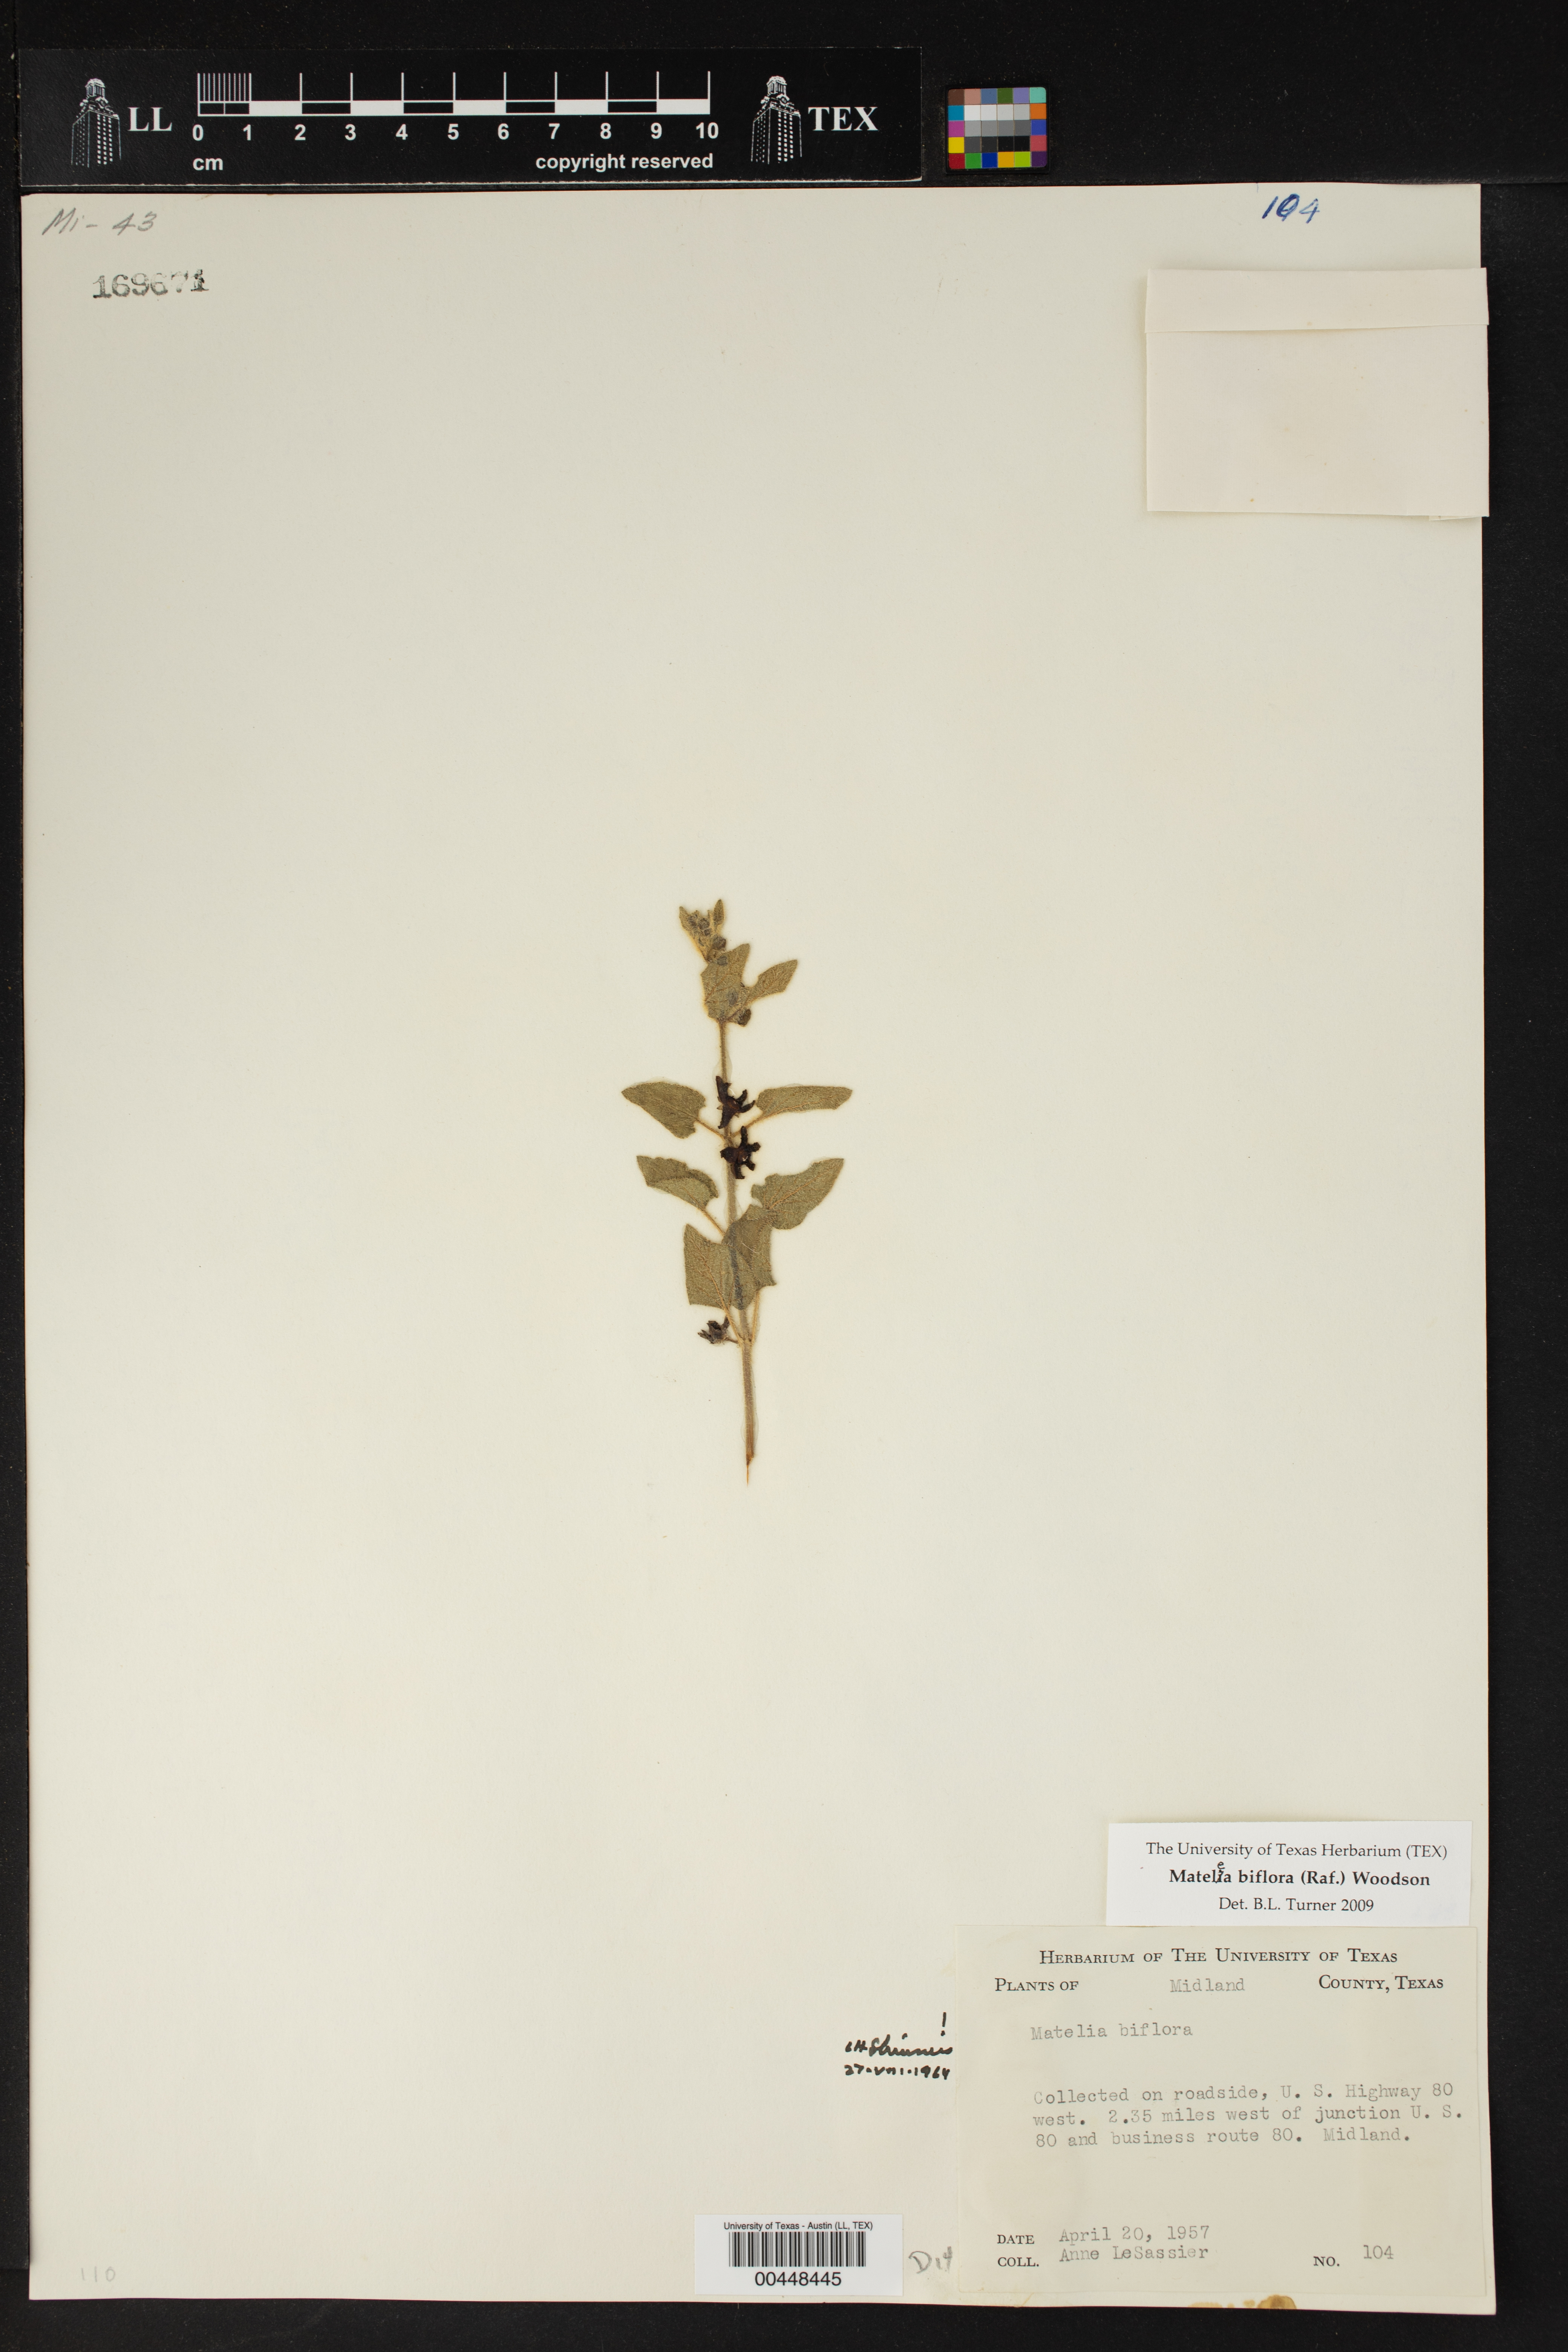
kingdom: Plantae
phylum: Tracheophyta
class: Magnoliopsida
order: Gentianales
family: Apocynaceae
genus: Chthamalia
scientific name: Chthamalia biflora
